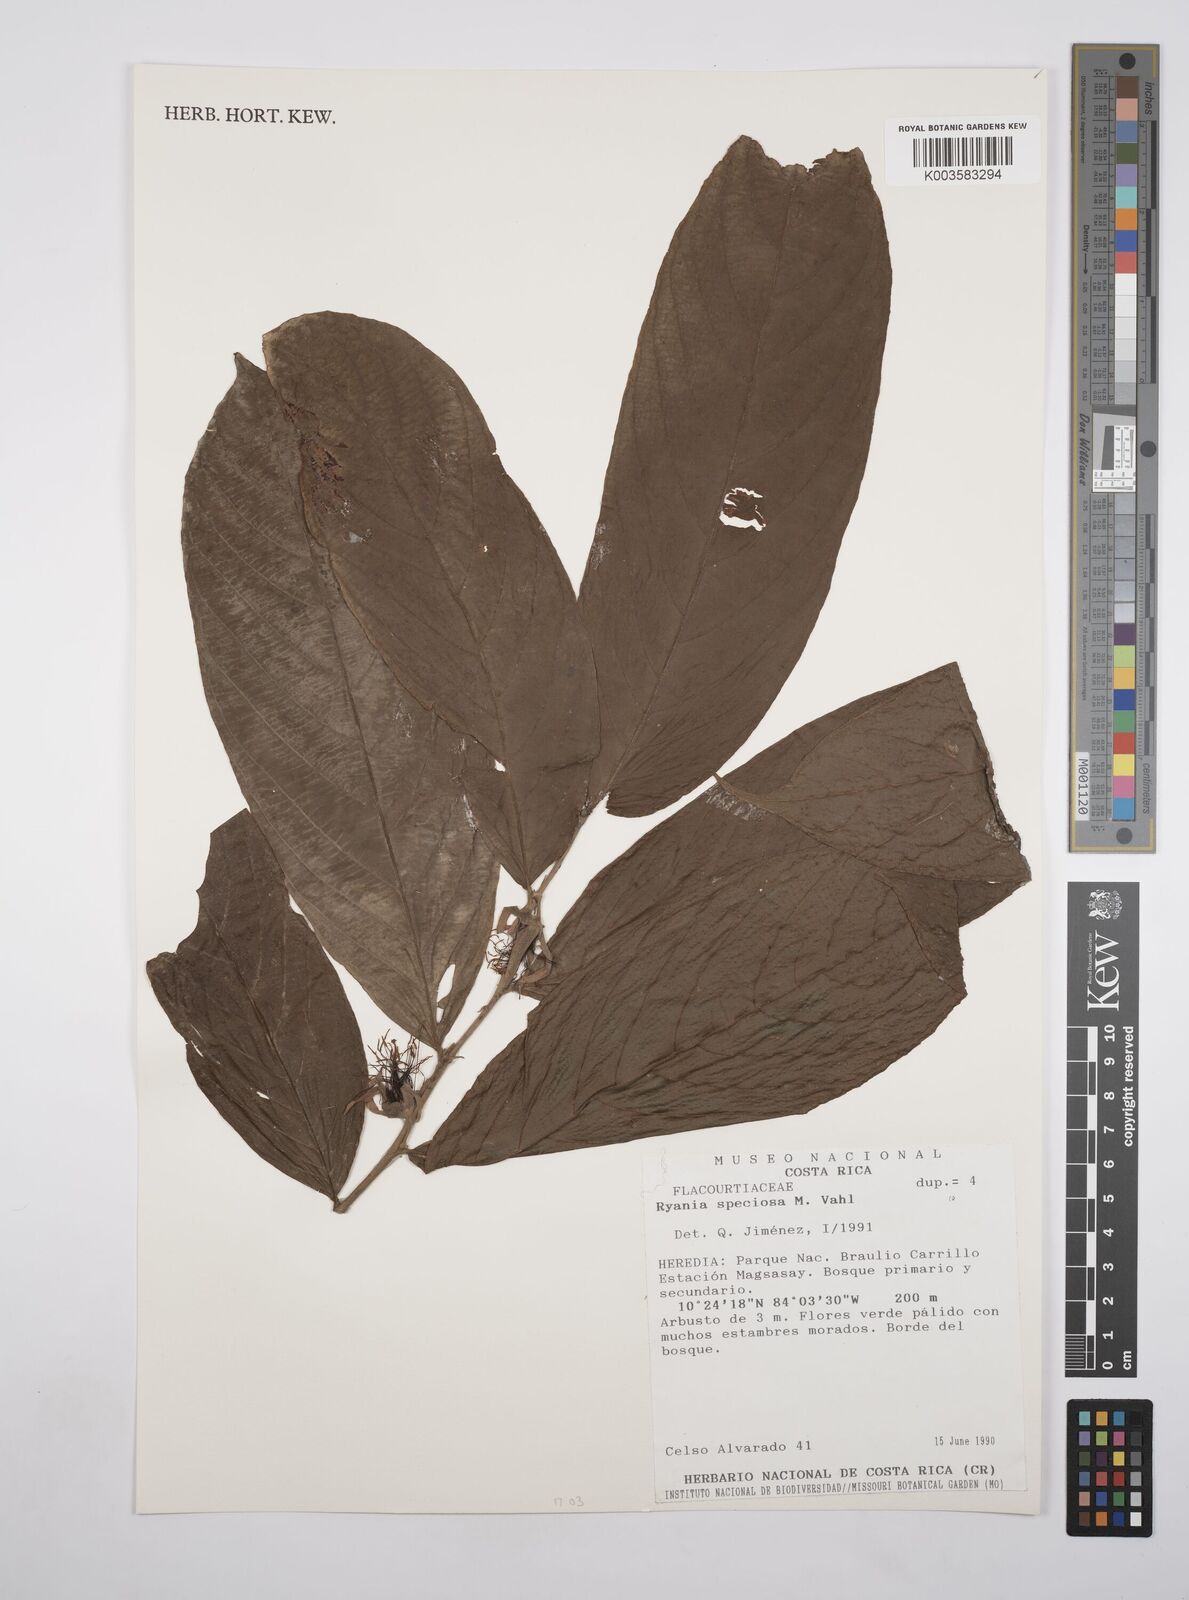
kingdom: Plantae
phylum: Tracheophyta
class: Magnoliopsida
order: Malpighiales
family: Salicaceae
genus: Ryania
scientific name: Ryania speciosa
